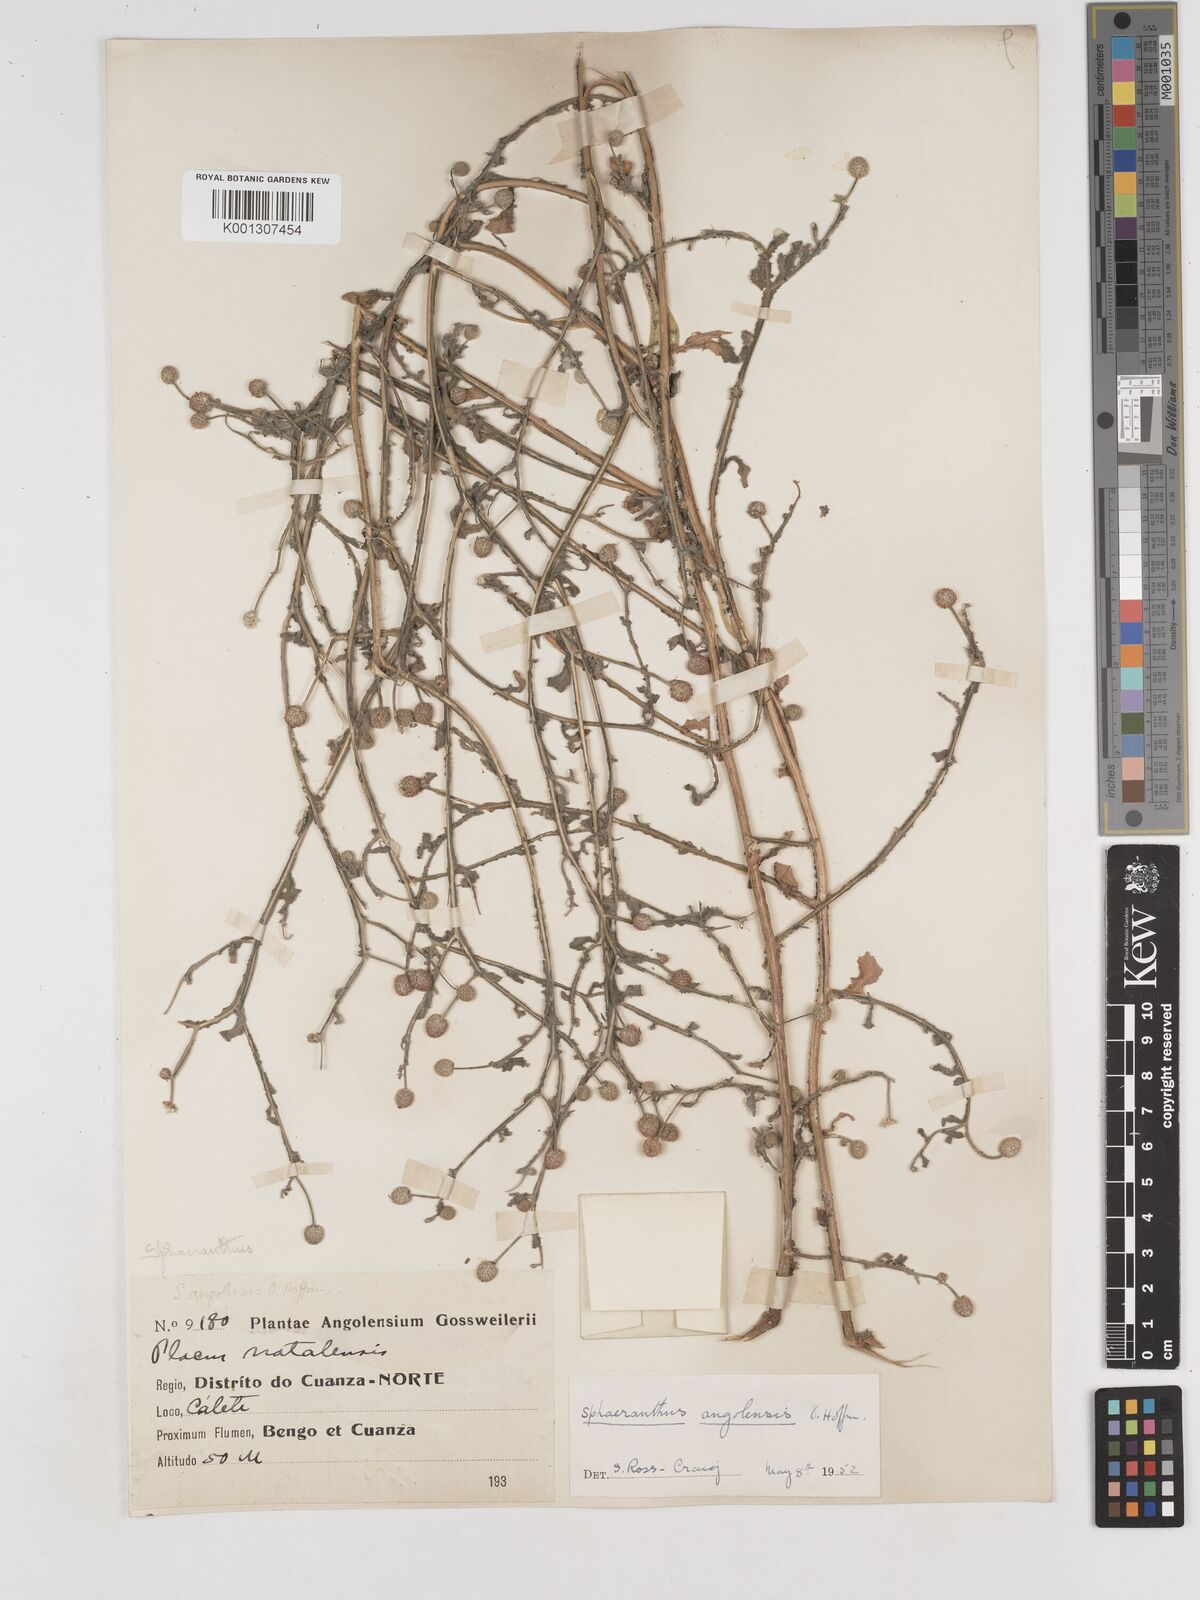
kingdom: Plantae
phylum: Tracheophyta
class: Magnoliopsida
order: Asterales
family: Asteraceae
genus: Sphaeranthus
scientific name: Sphaeranthus angolensis
